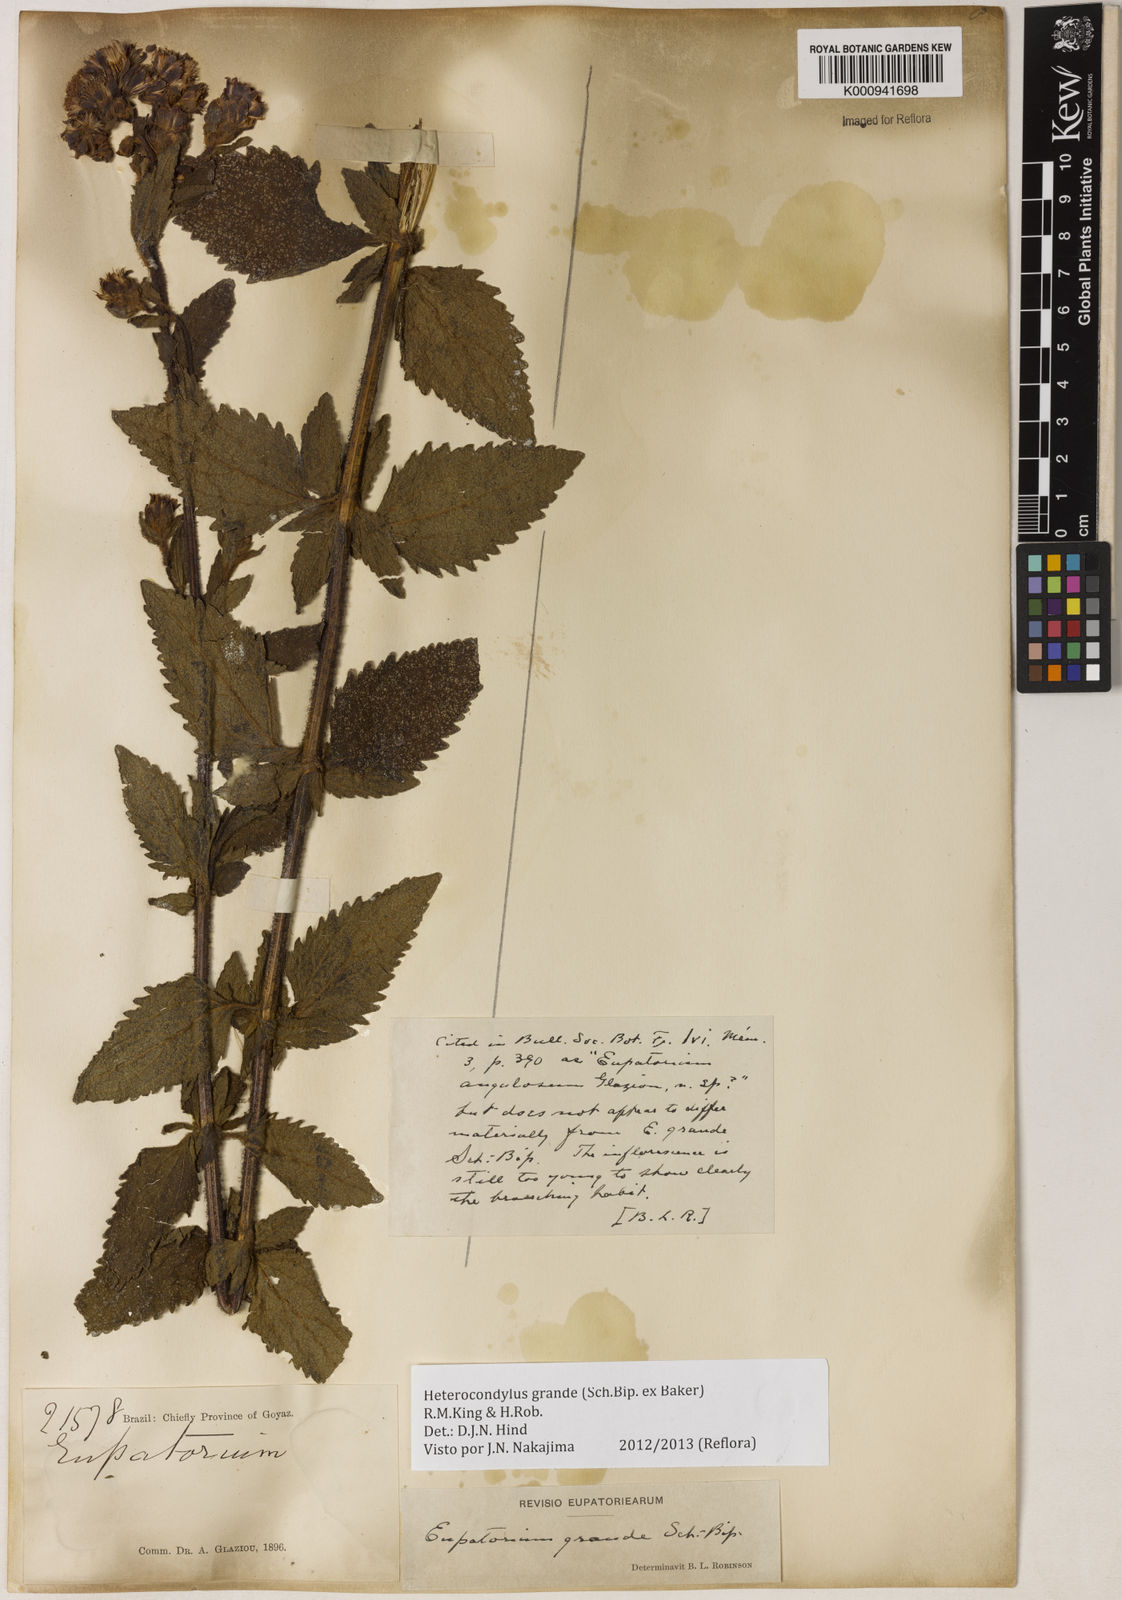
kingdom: Plantae
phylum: Tracheophyta
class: Magnoliopsida
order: Asterales
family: Asteraceae
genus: Heterocondylus
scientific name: Heterocondylus
